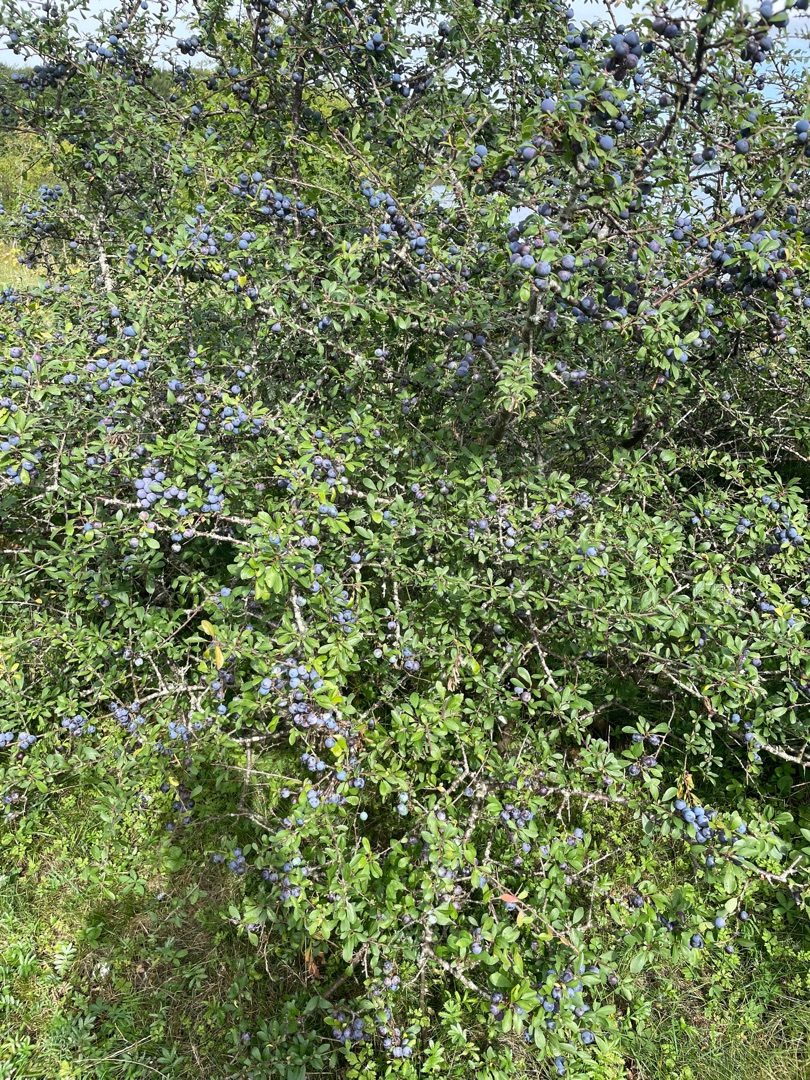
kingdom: Plantae
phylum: Tracheophyta
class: Magnoliopsida
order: Rosales
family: Rosaceae
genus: Prunus
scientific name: Prunus spinosa
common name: Slåen
